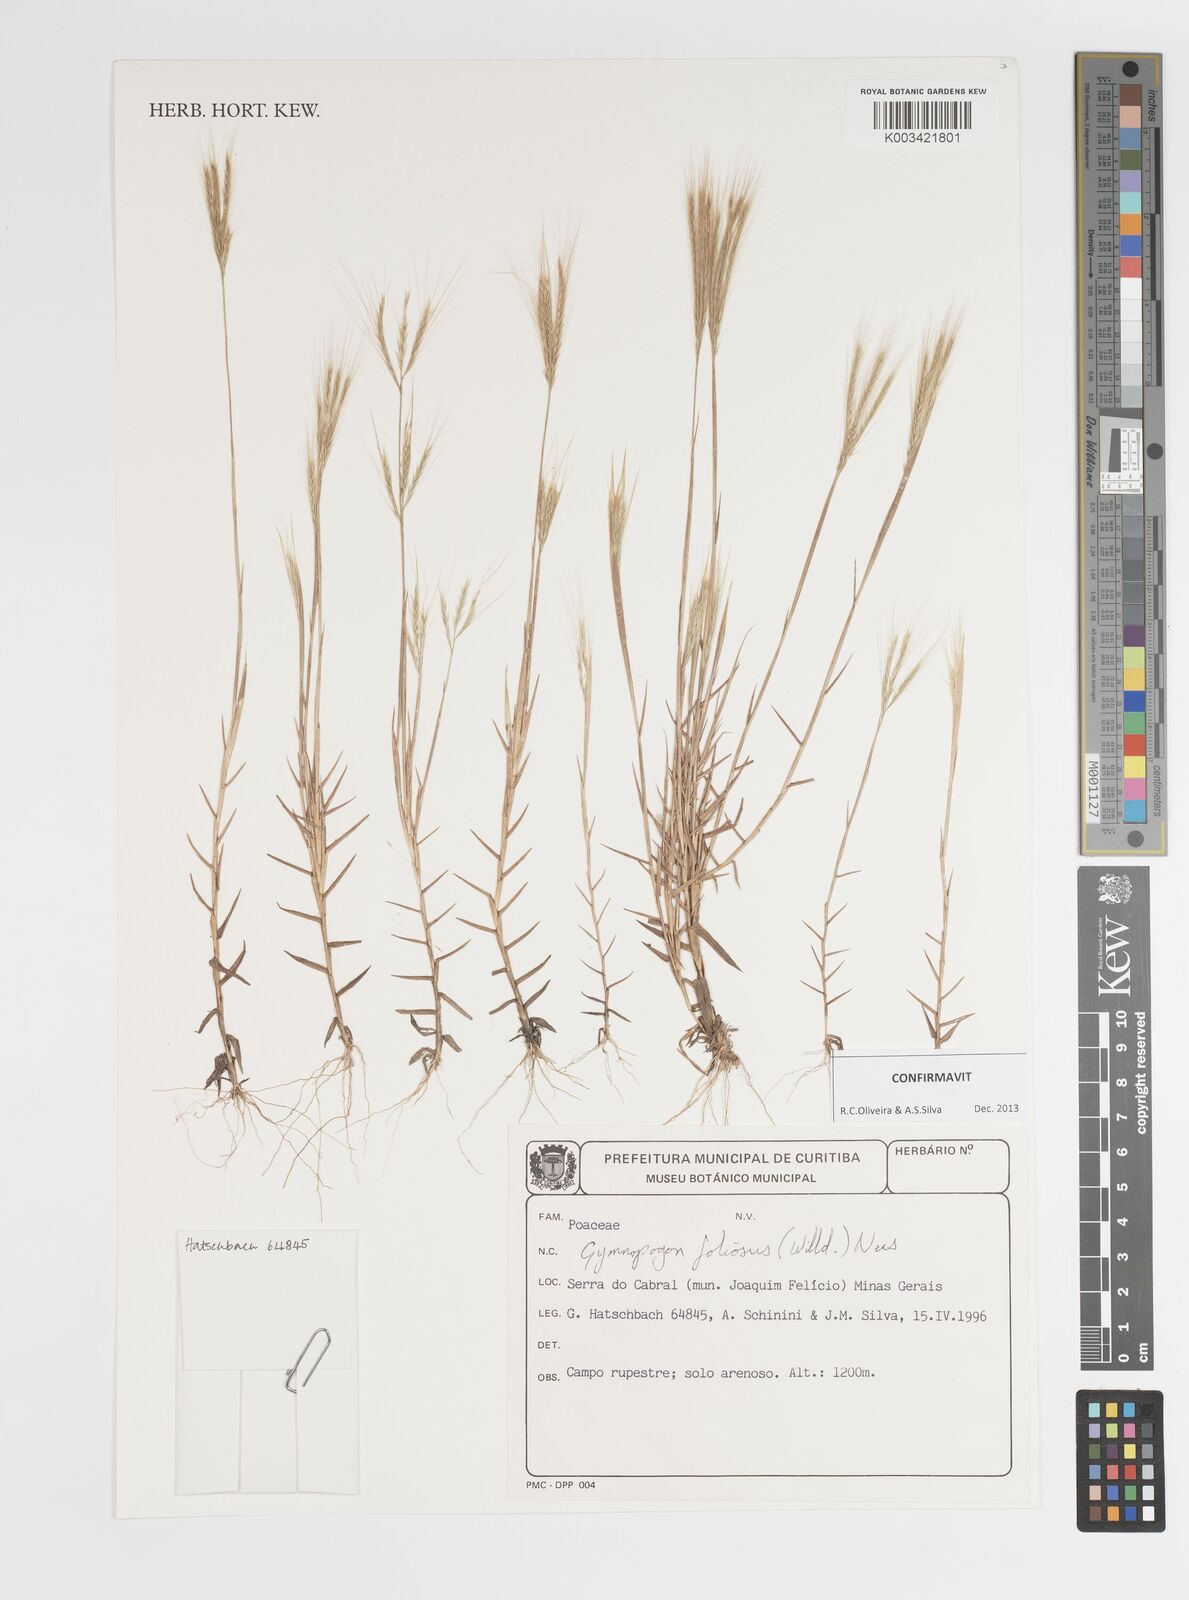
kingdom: Plantae
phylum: Tracheophyta
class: Liliopsida
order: Poales
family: Poaceae
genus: Gymnopogon
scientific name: Gymnopogon foliosus
